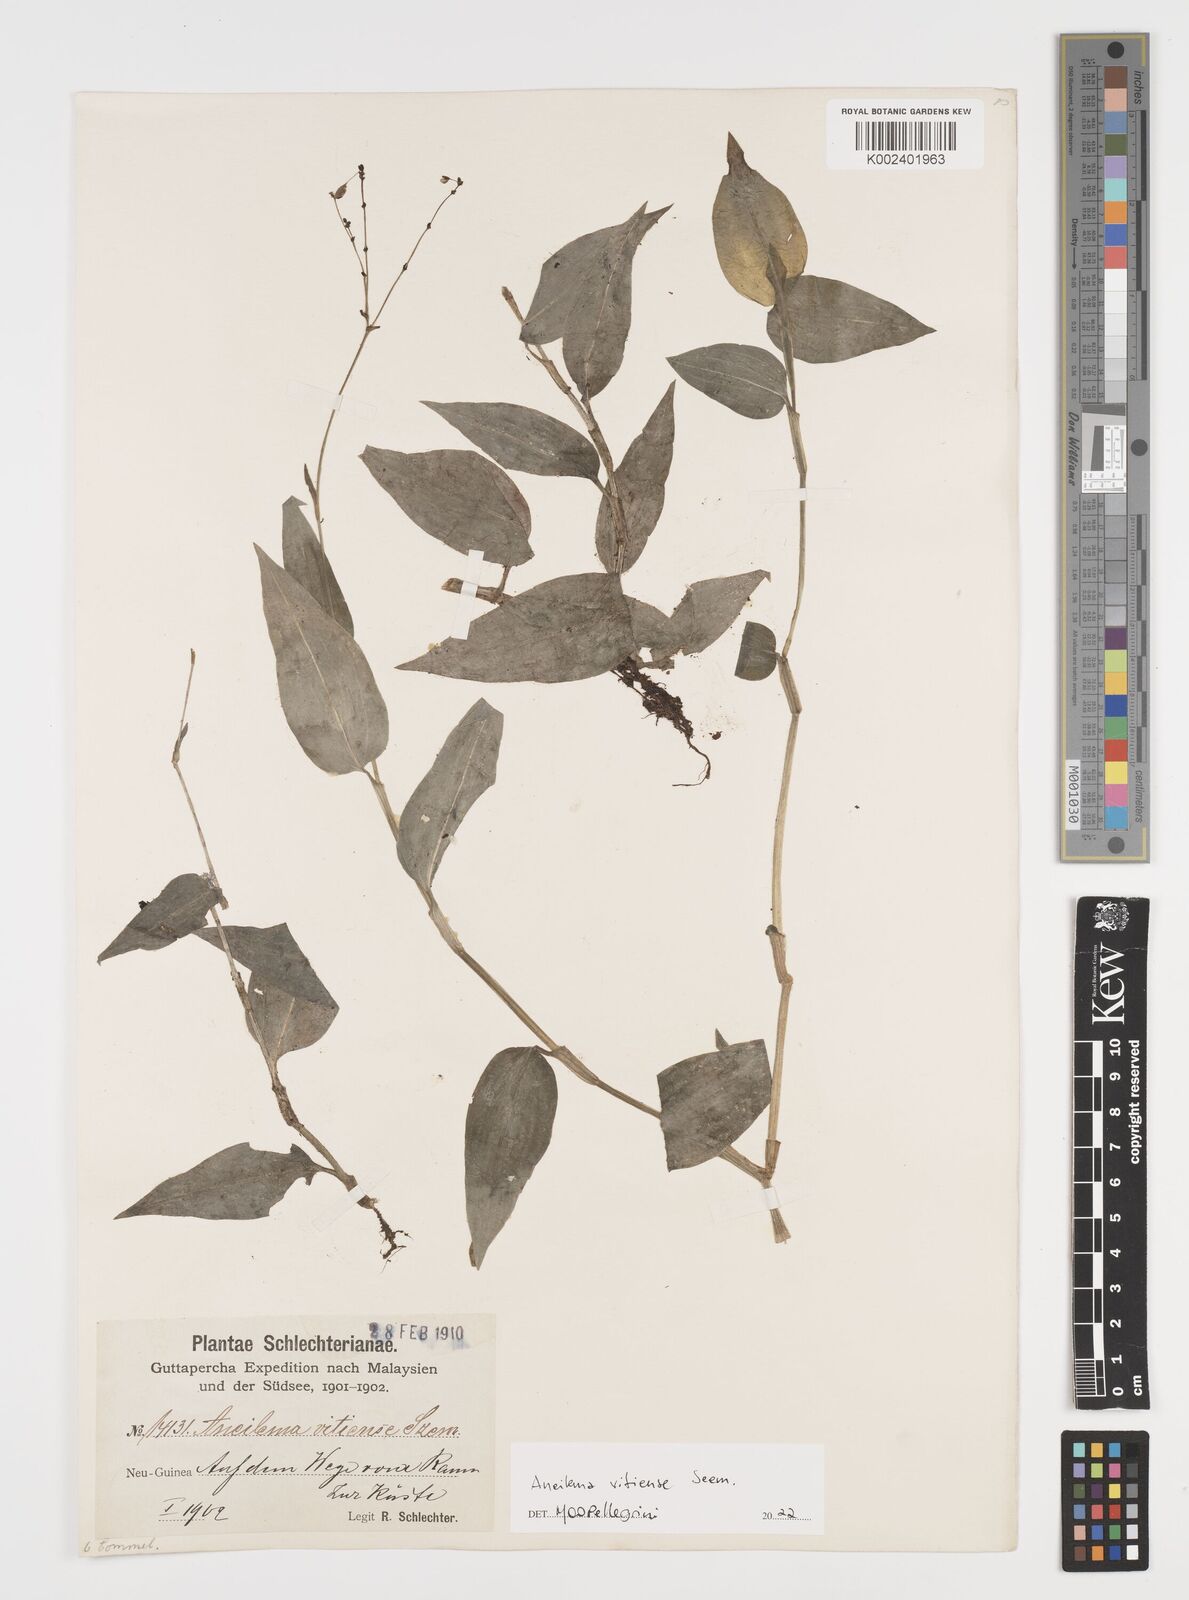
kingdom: Plantae
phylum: Tracheophyta
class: Liliopsida
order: Commelinales
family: Commelinaceae
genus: Rhopalephora
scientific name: Rhopalephora vitiensis
